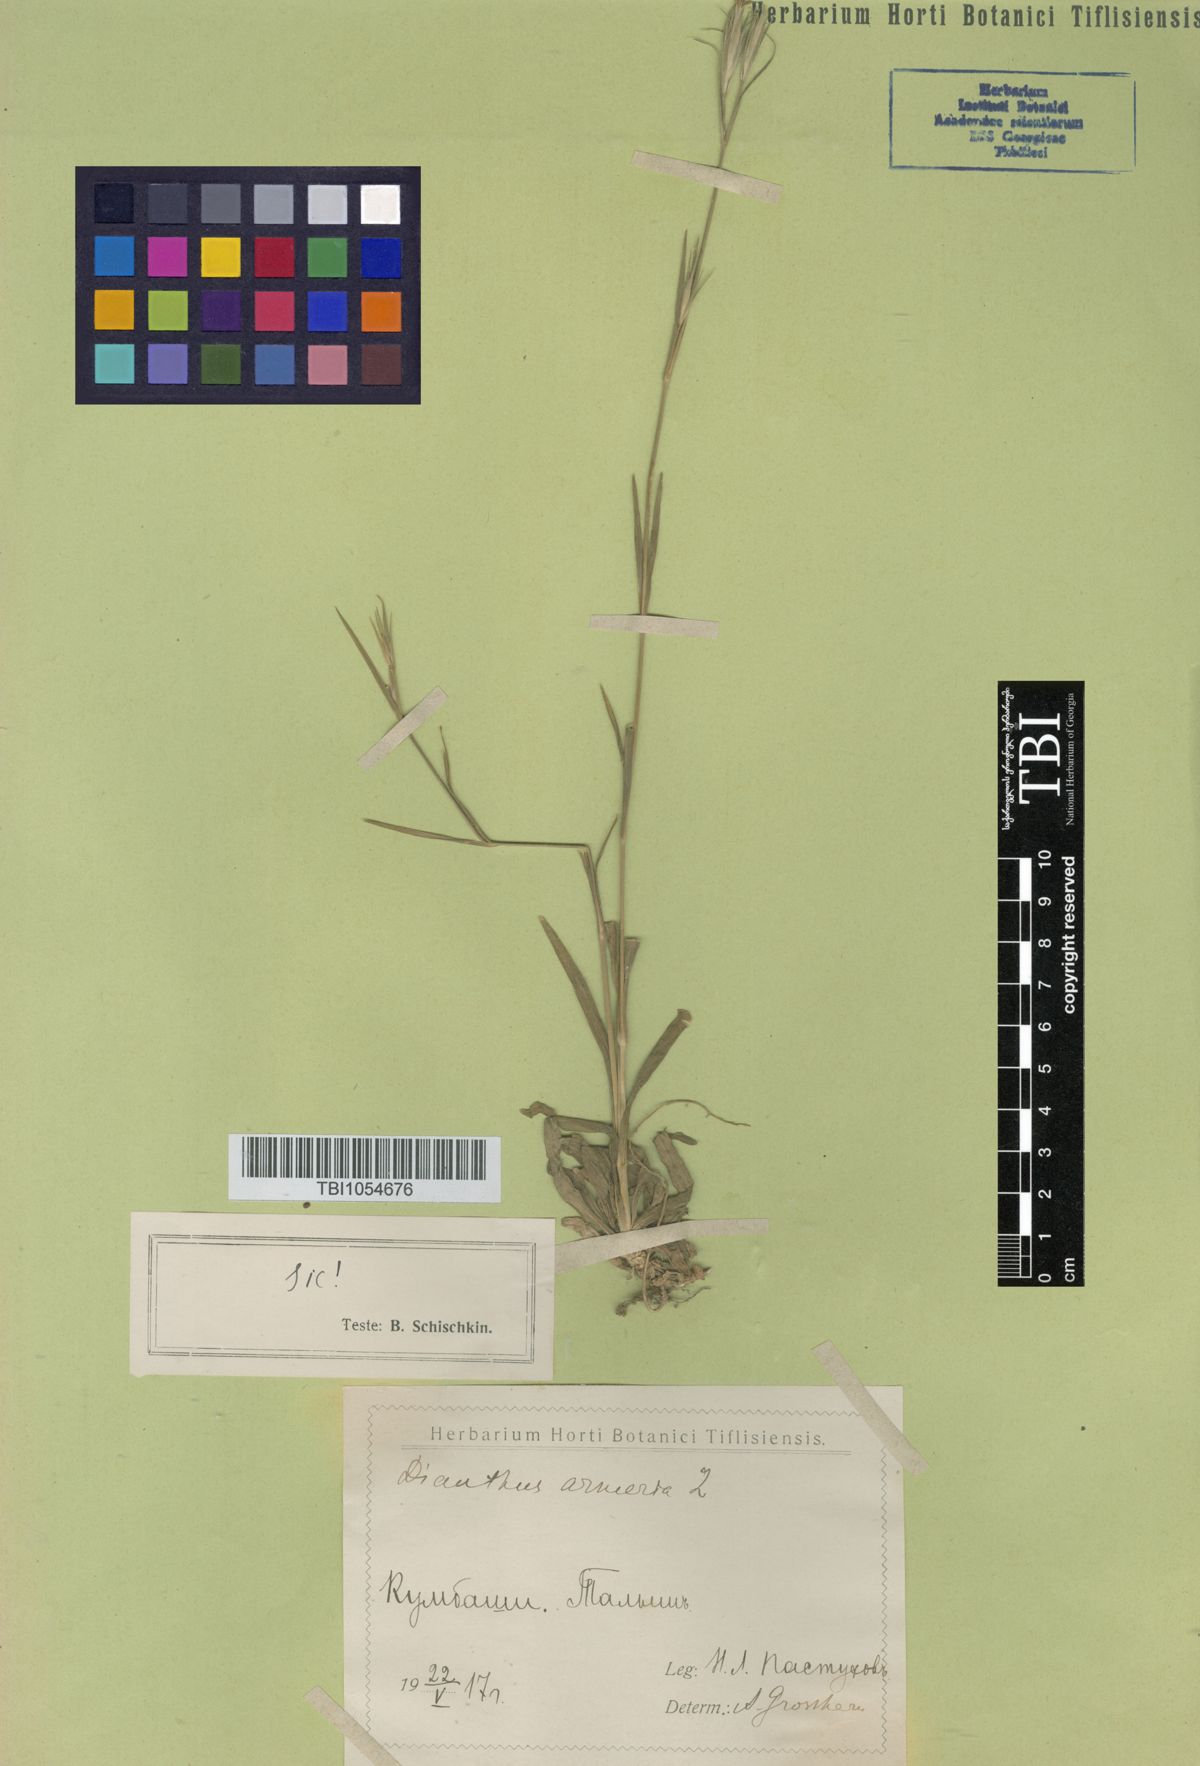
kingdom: Plantae
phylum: Tracheophyta
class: Magnoliopsida
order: Caryophyllales
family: Caryophyllaceae
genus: Dianthus
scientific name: Dianthus armeria
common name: Deptford pink
